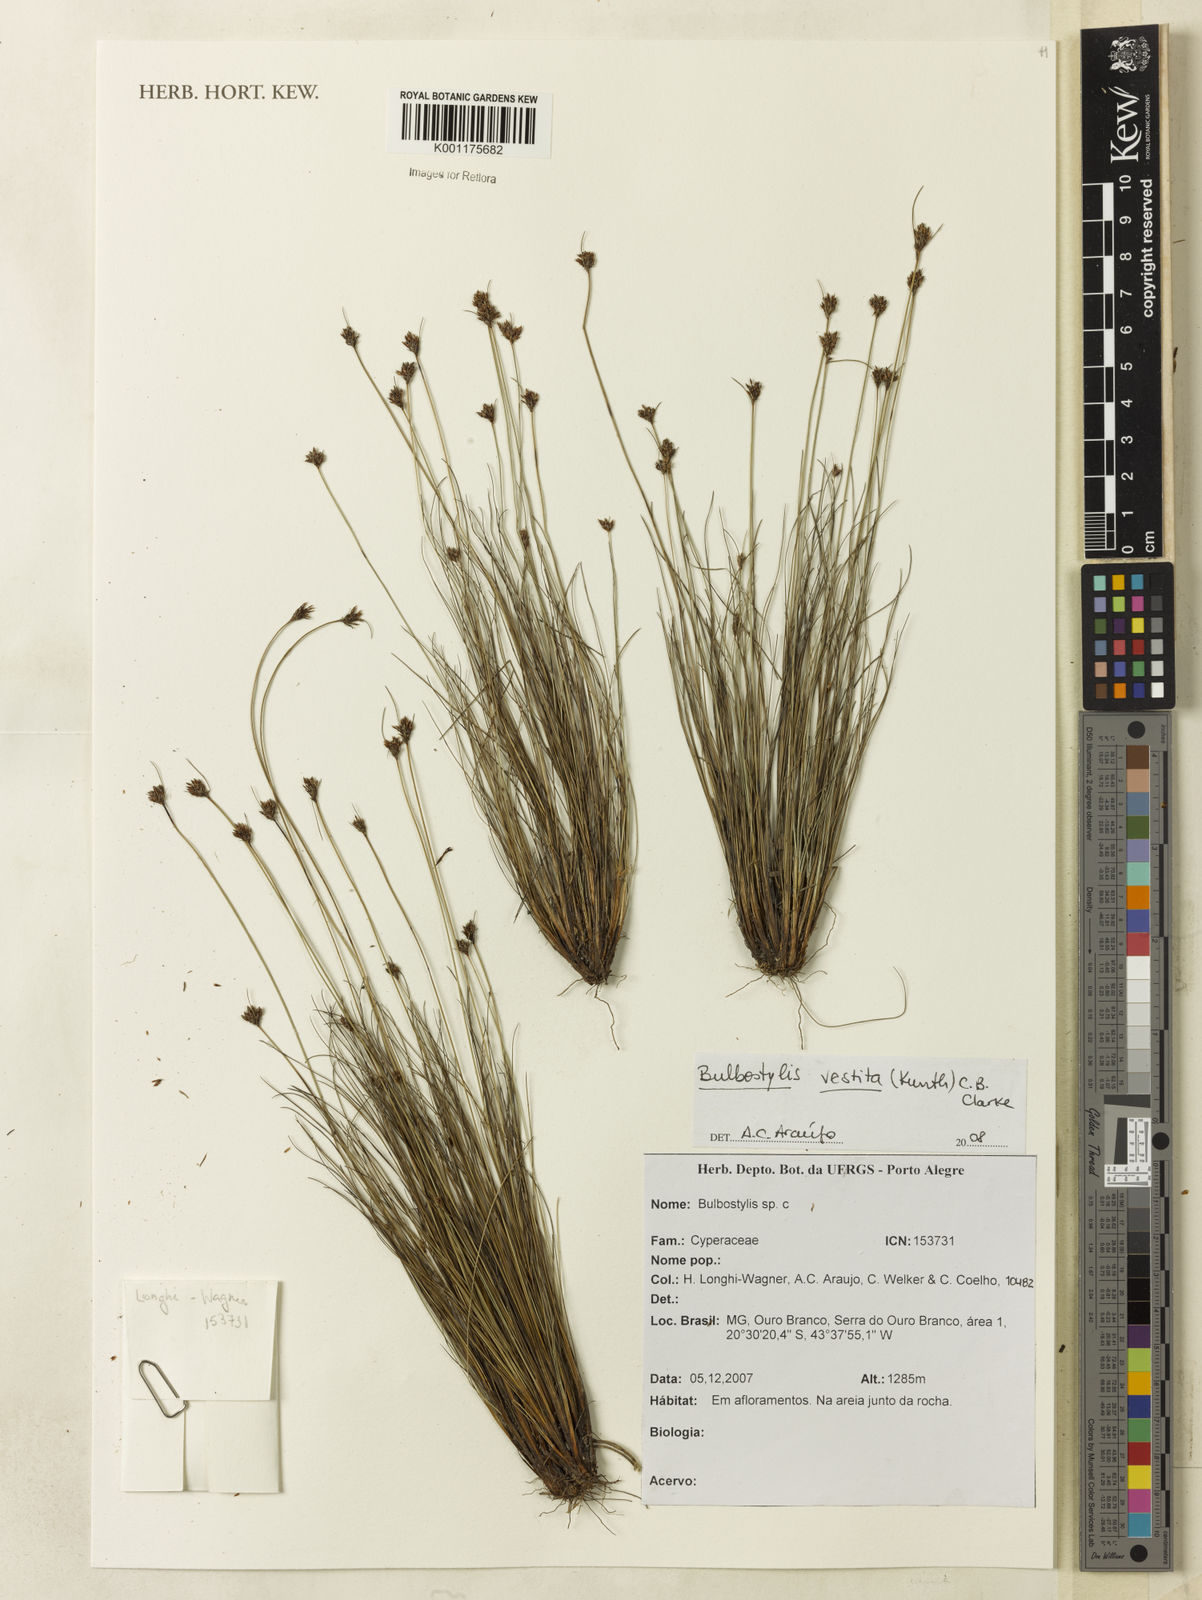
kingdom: Plantae
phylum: Tracheophyta
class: Liliopsida
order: Poales
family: Cyperaceae
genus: Bulbostylis
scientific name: Bulbostylis vestita
